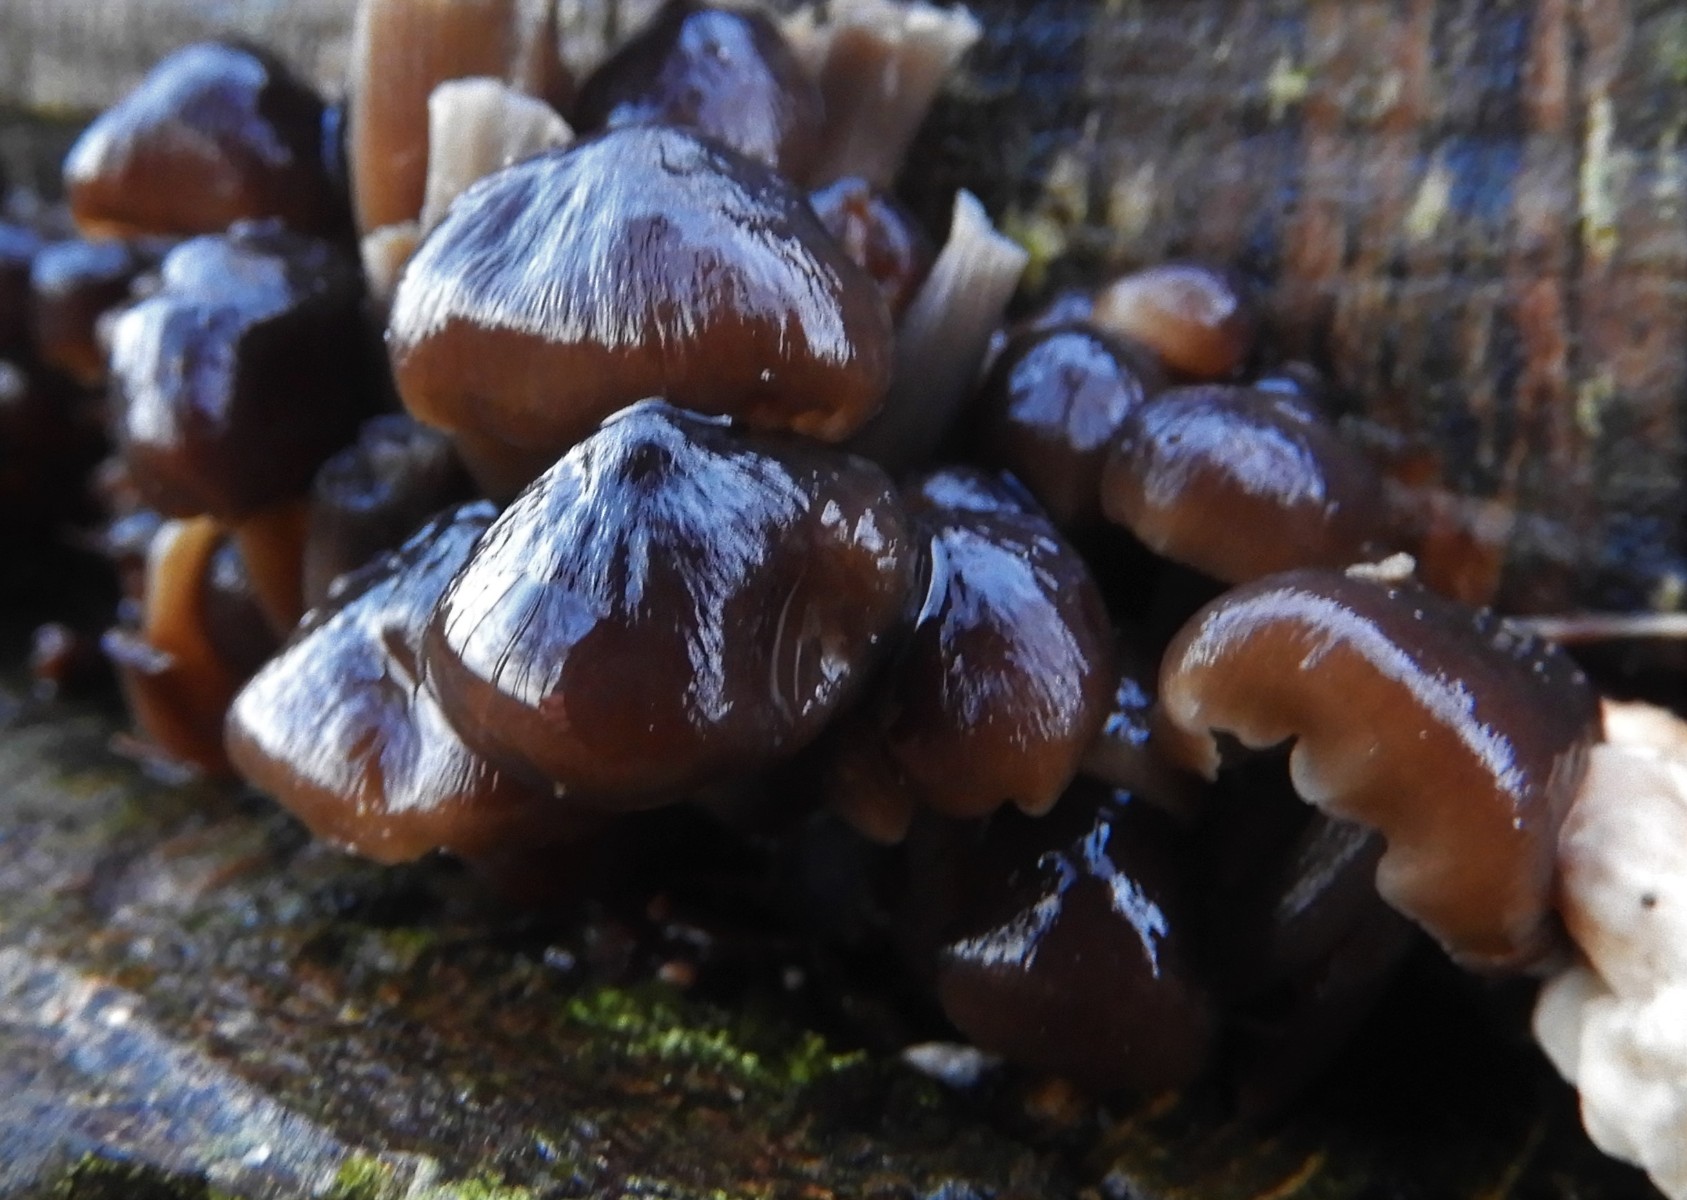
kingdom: Fungi
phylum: Basidiomycota
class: Agaricomycetes
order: Agaricales
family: Mycenaceae
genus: Mycena
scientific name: Mycena tintinnabulum
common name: vinter-huesvamp
